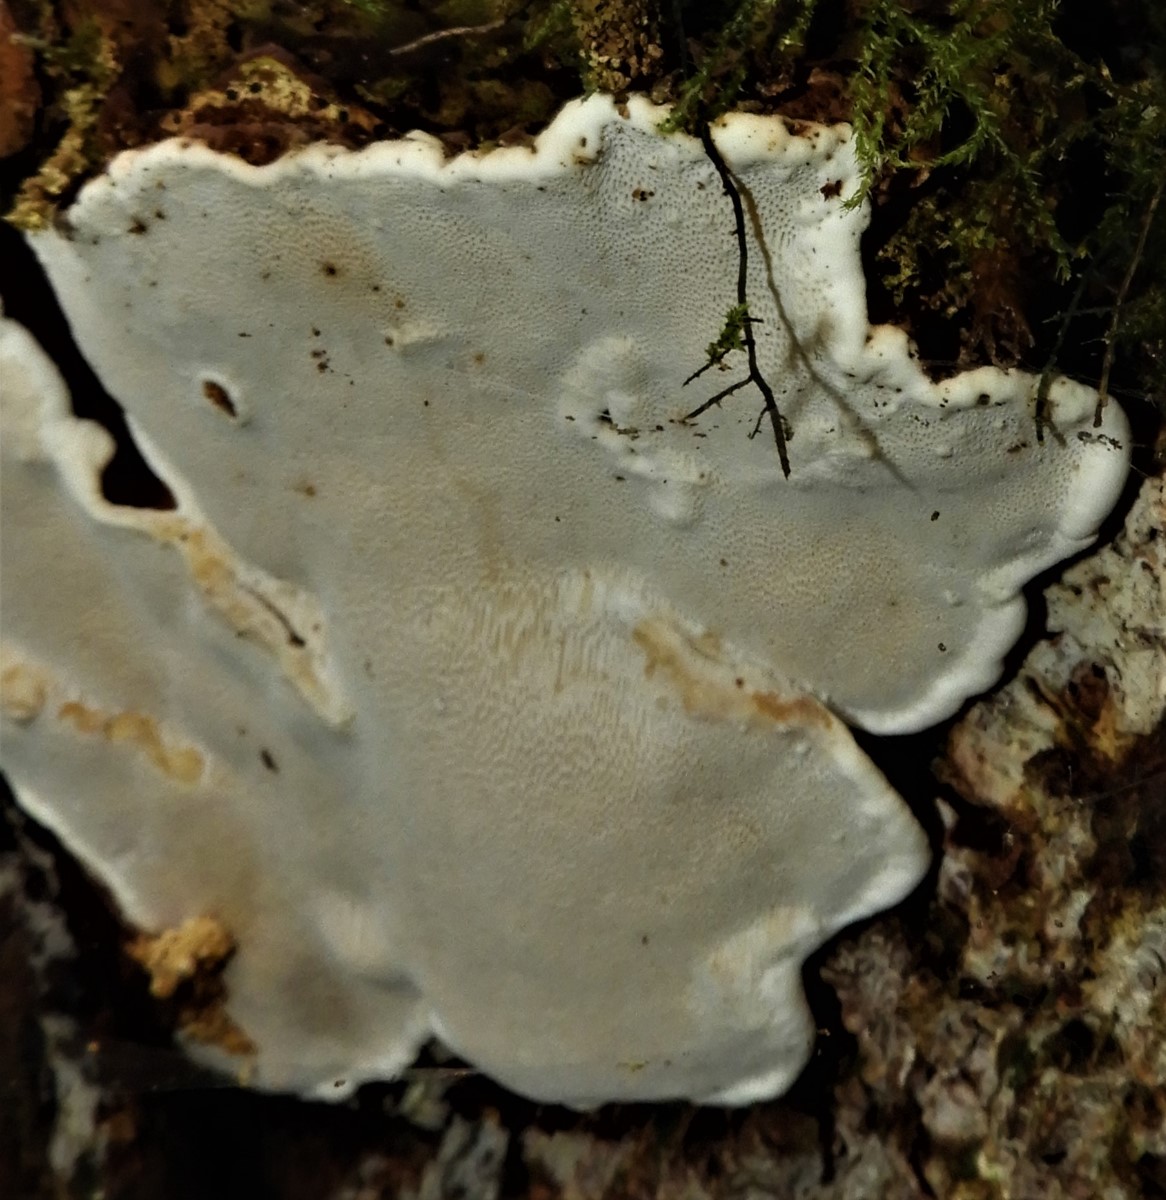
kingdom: Fungi
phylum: Basidiomycota
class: Agaricomycetes
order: Russulales
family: Bondarzewiaceae
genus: Heterobasidion
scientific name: Heterobasidion annosum
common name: almindelig rodfordærver
